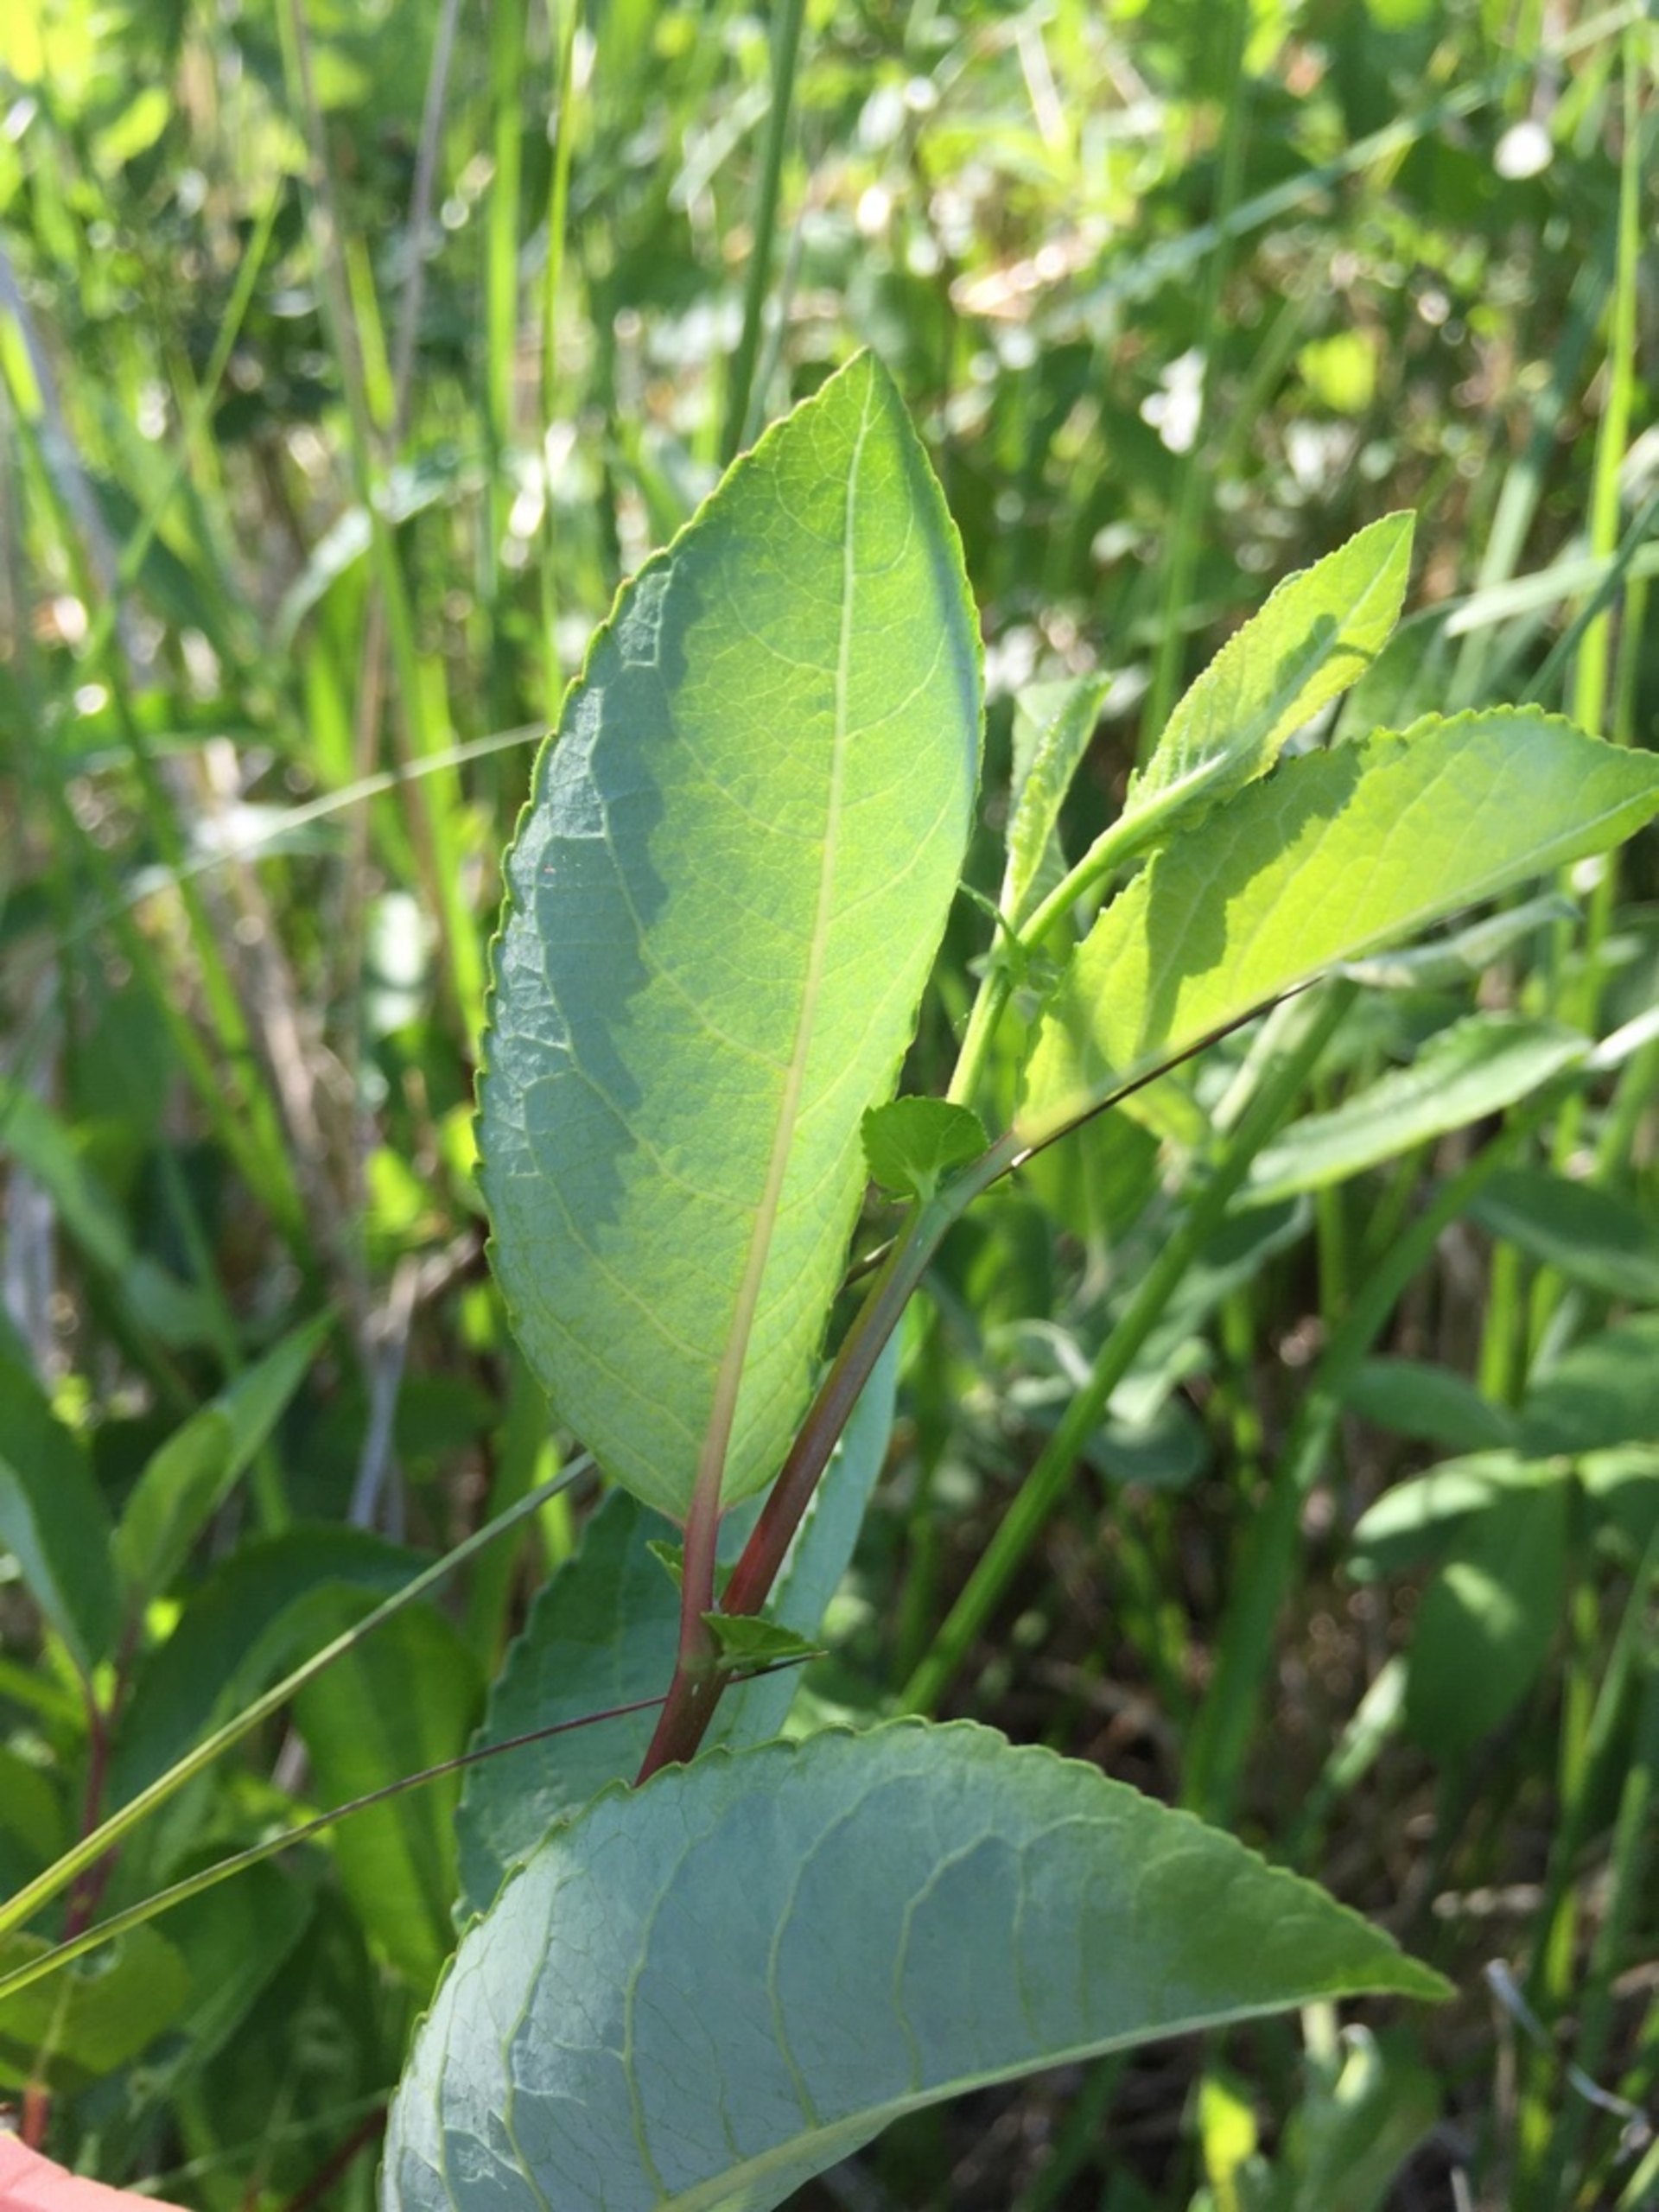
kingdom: Plantae
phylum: Tracheophyta
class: Magnoliopsida
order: Malpighiales
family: Salicaceae
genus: Salix
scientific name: Salix myrsinifolia
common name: Sort pil
